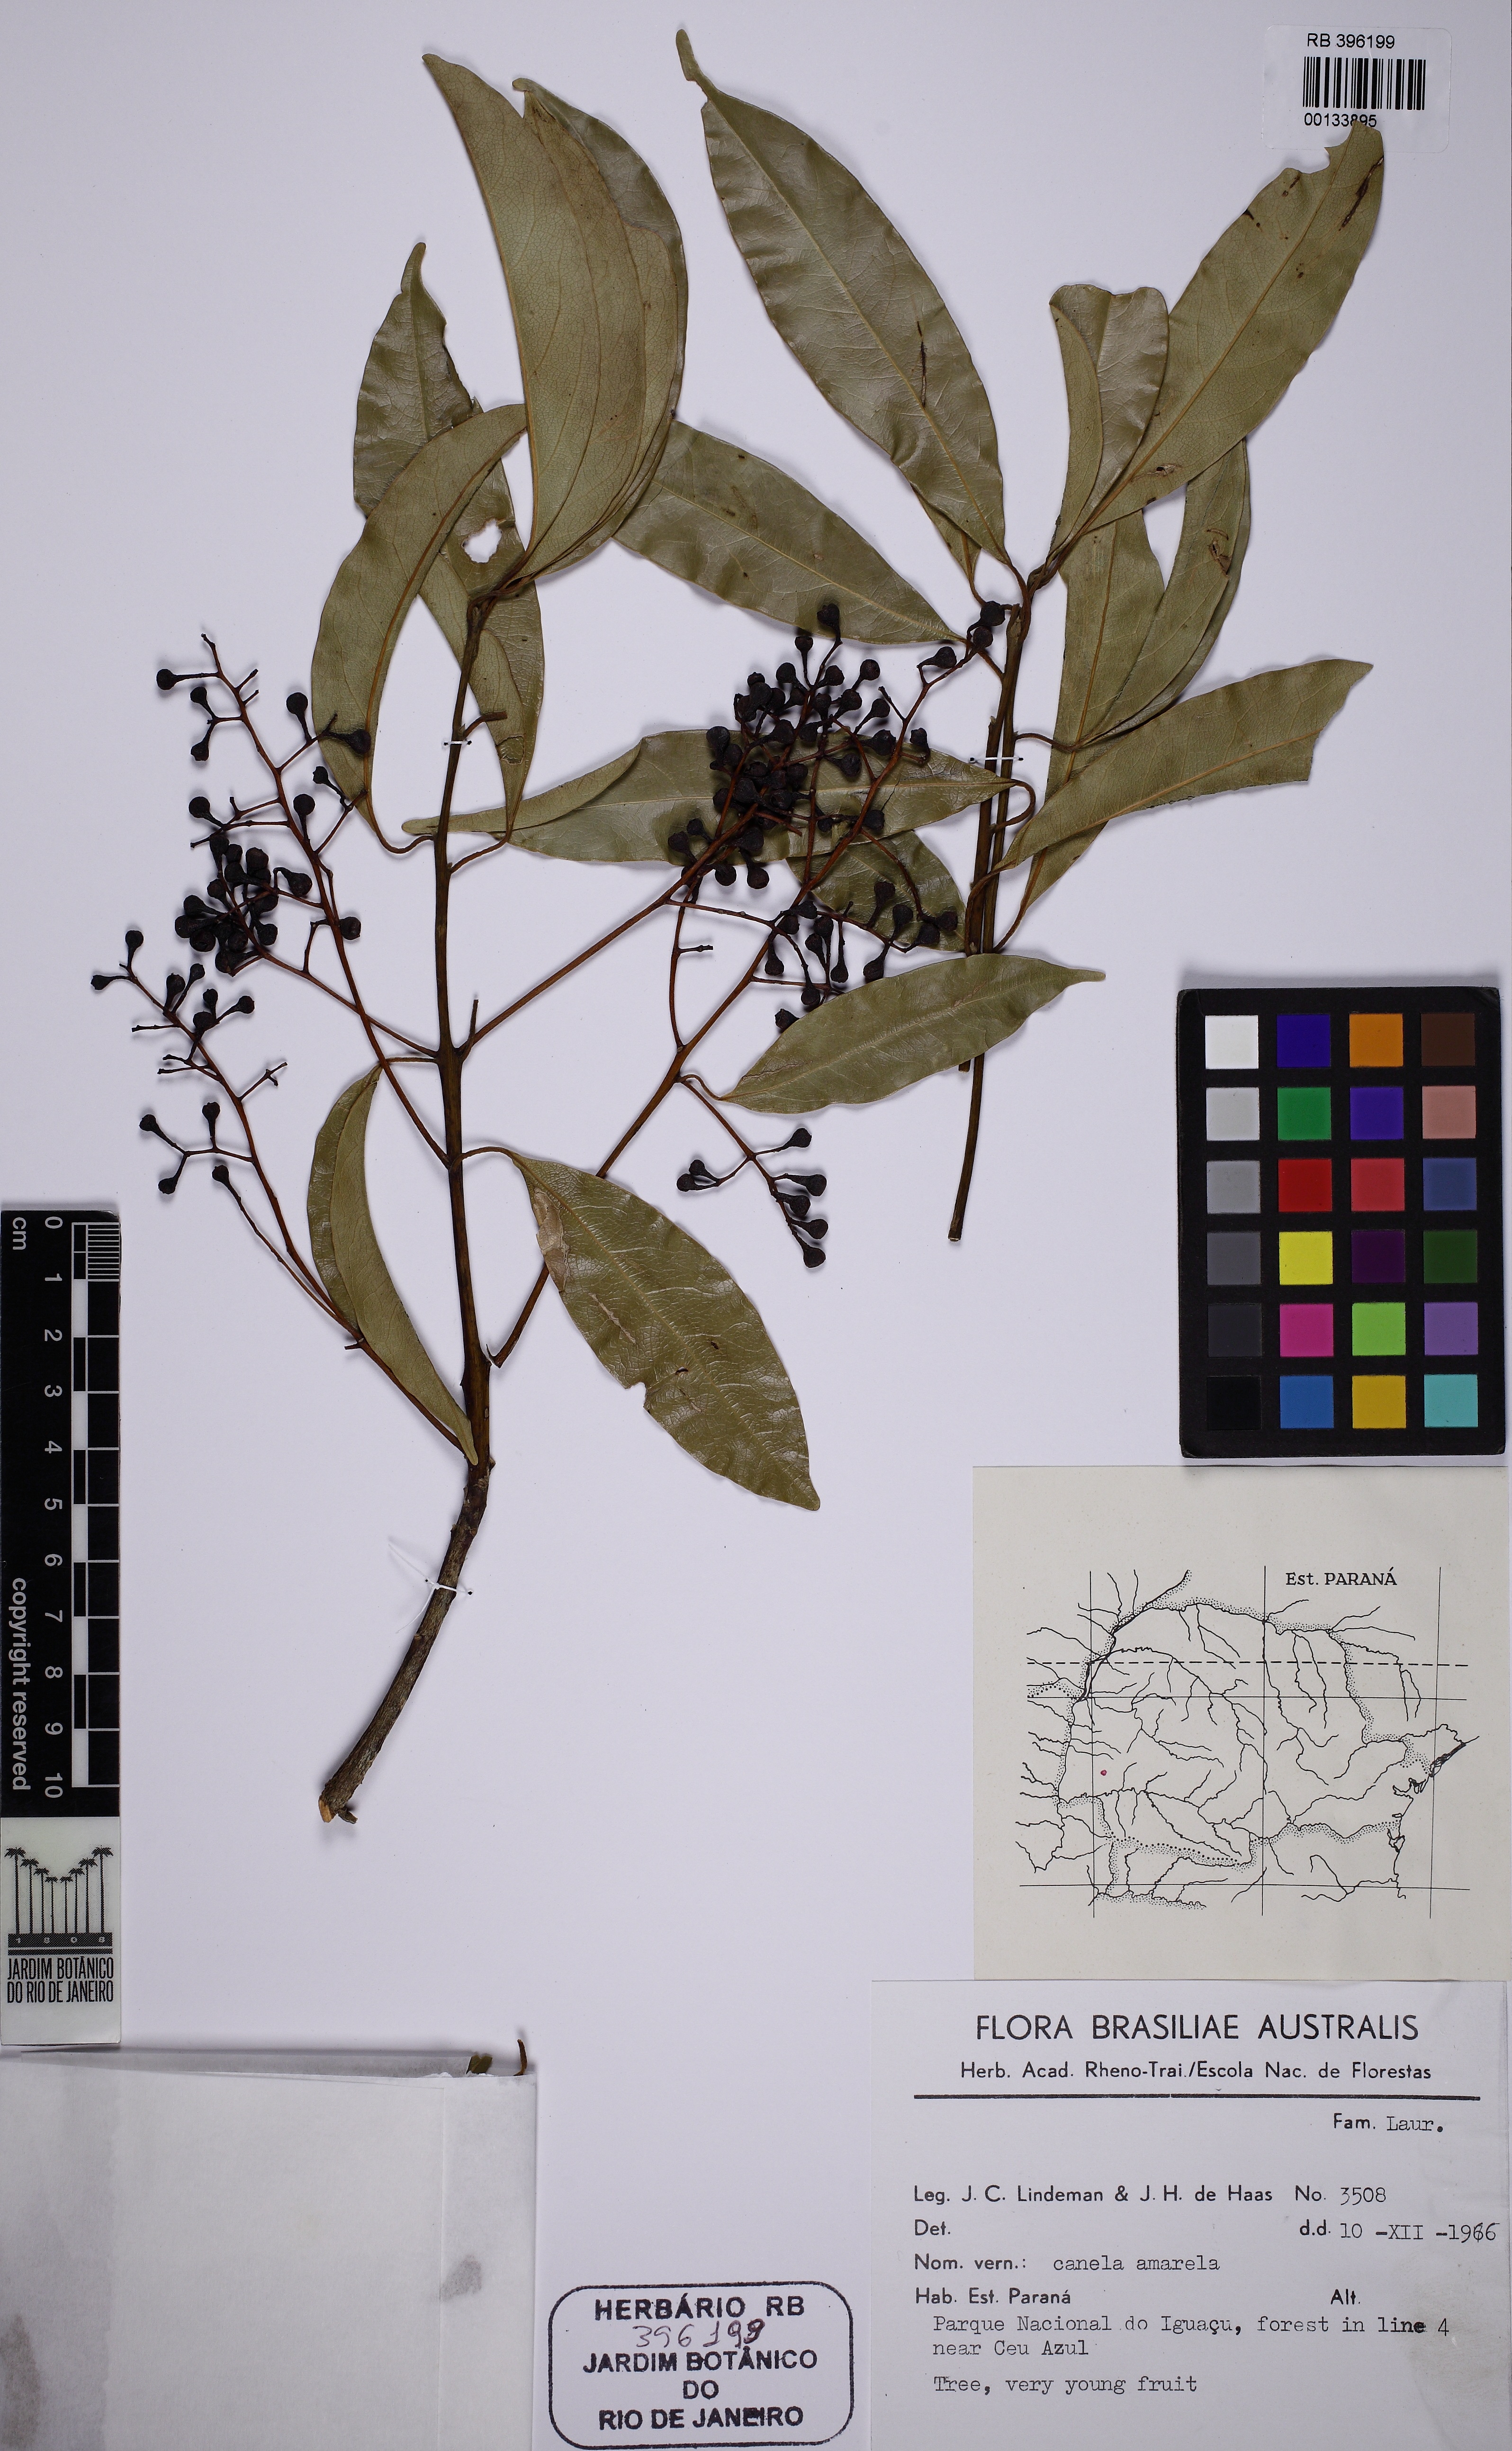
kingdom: Plantae
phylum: Tracheophyta
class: Magnoliopsida
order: Laurales
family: Lauraceae
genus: Ocotea
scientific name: Ocotea
